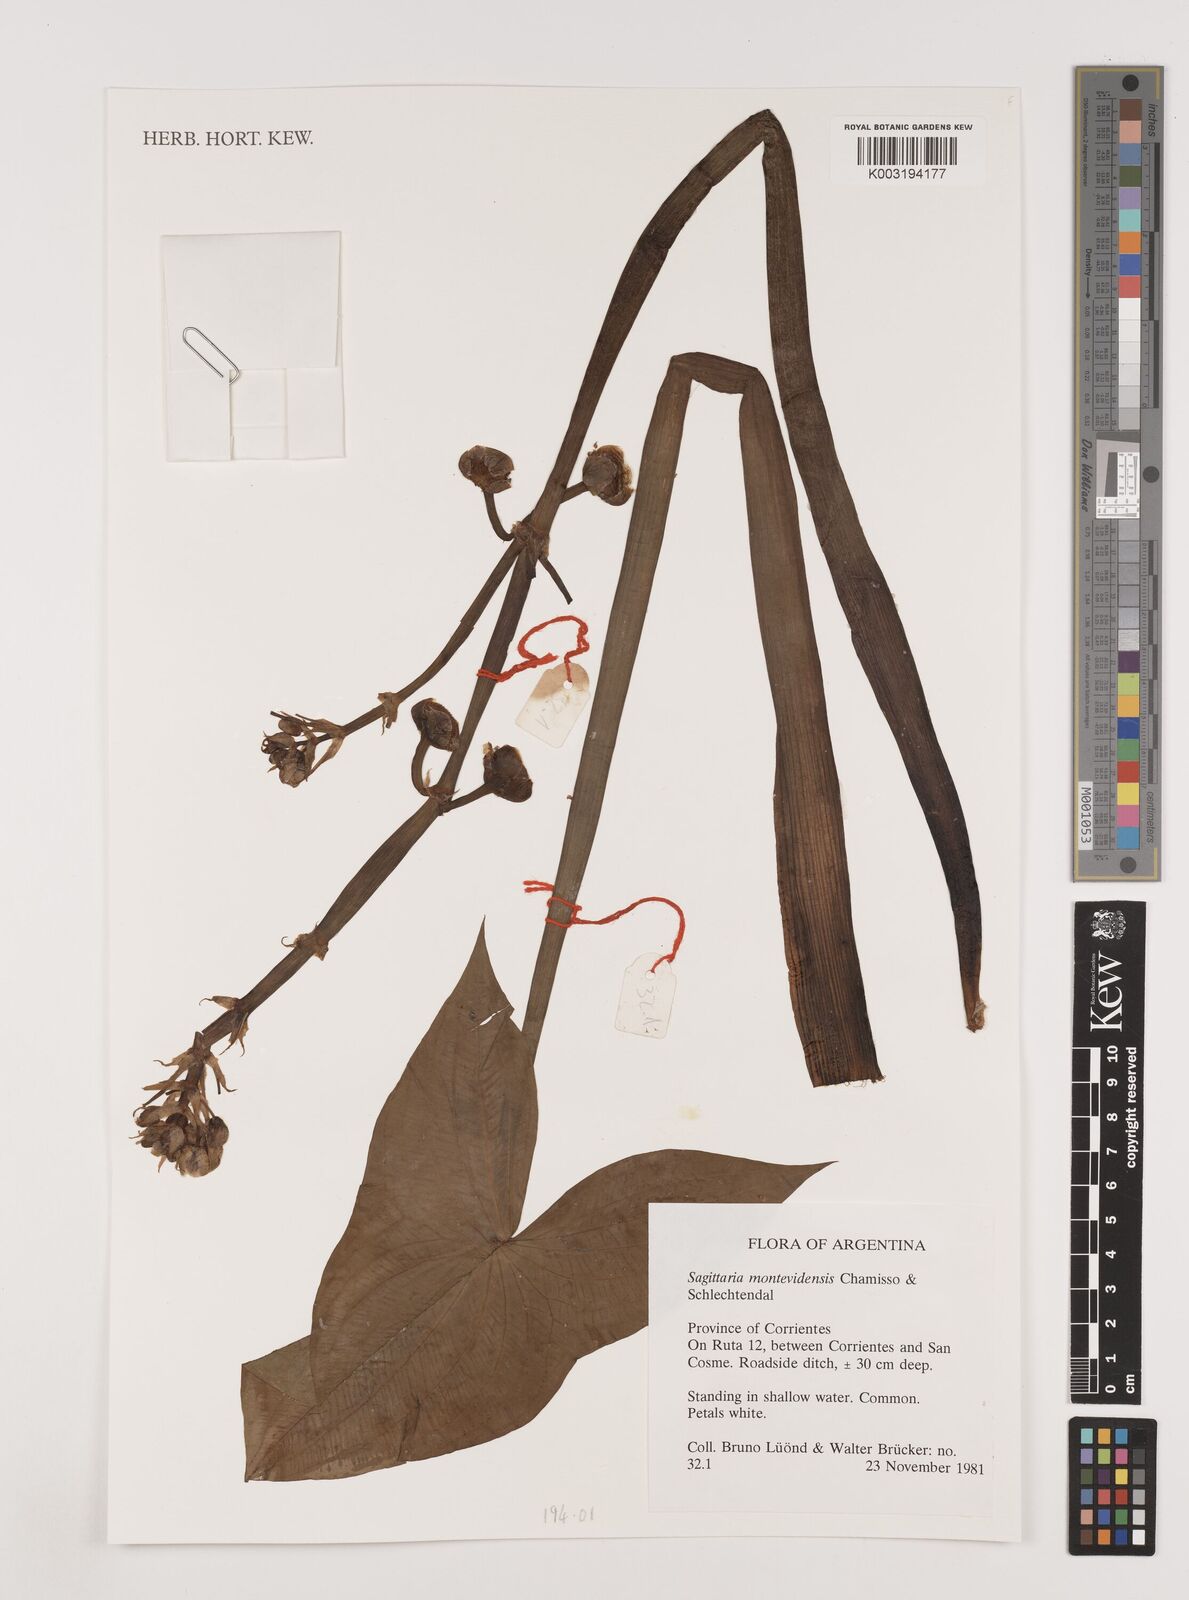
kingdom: Plantae
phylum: Tracheophyta
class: Liliopsida
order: Alismatales
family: Alismataceae
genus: Sagittaria
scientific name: Sagittaria montevidensis
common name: Giant arrowhead
